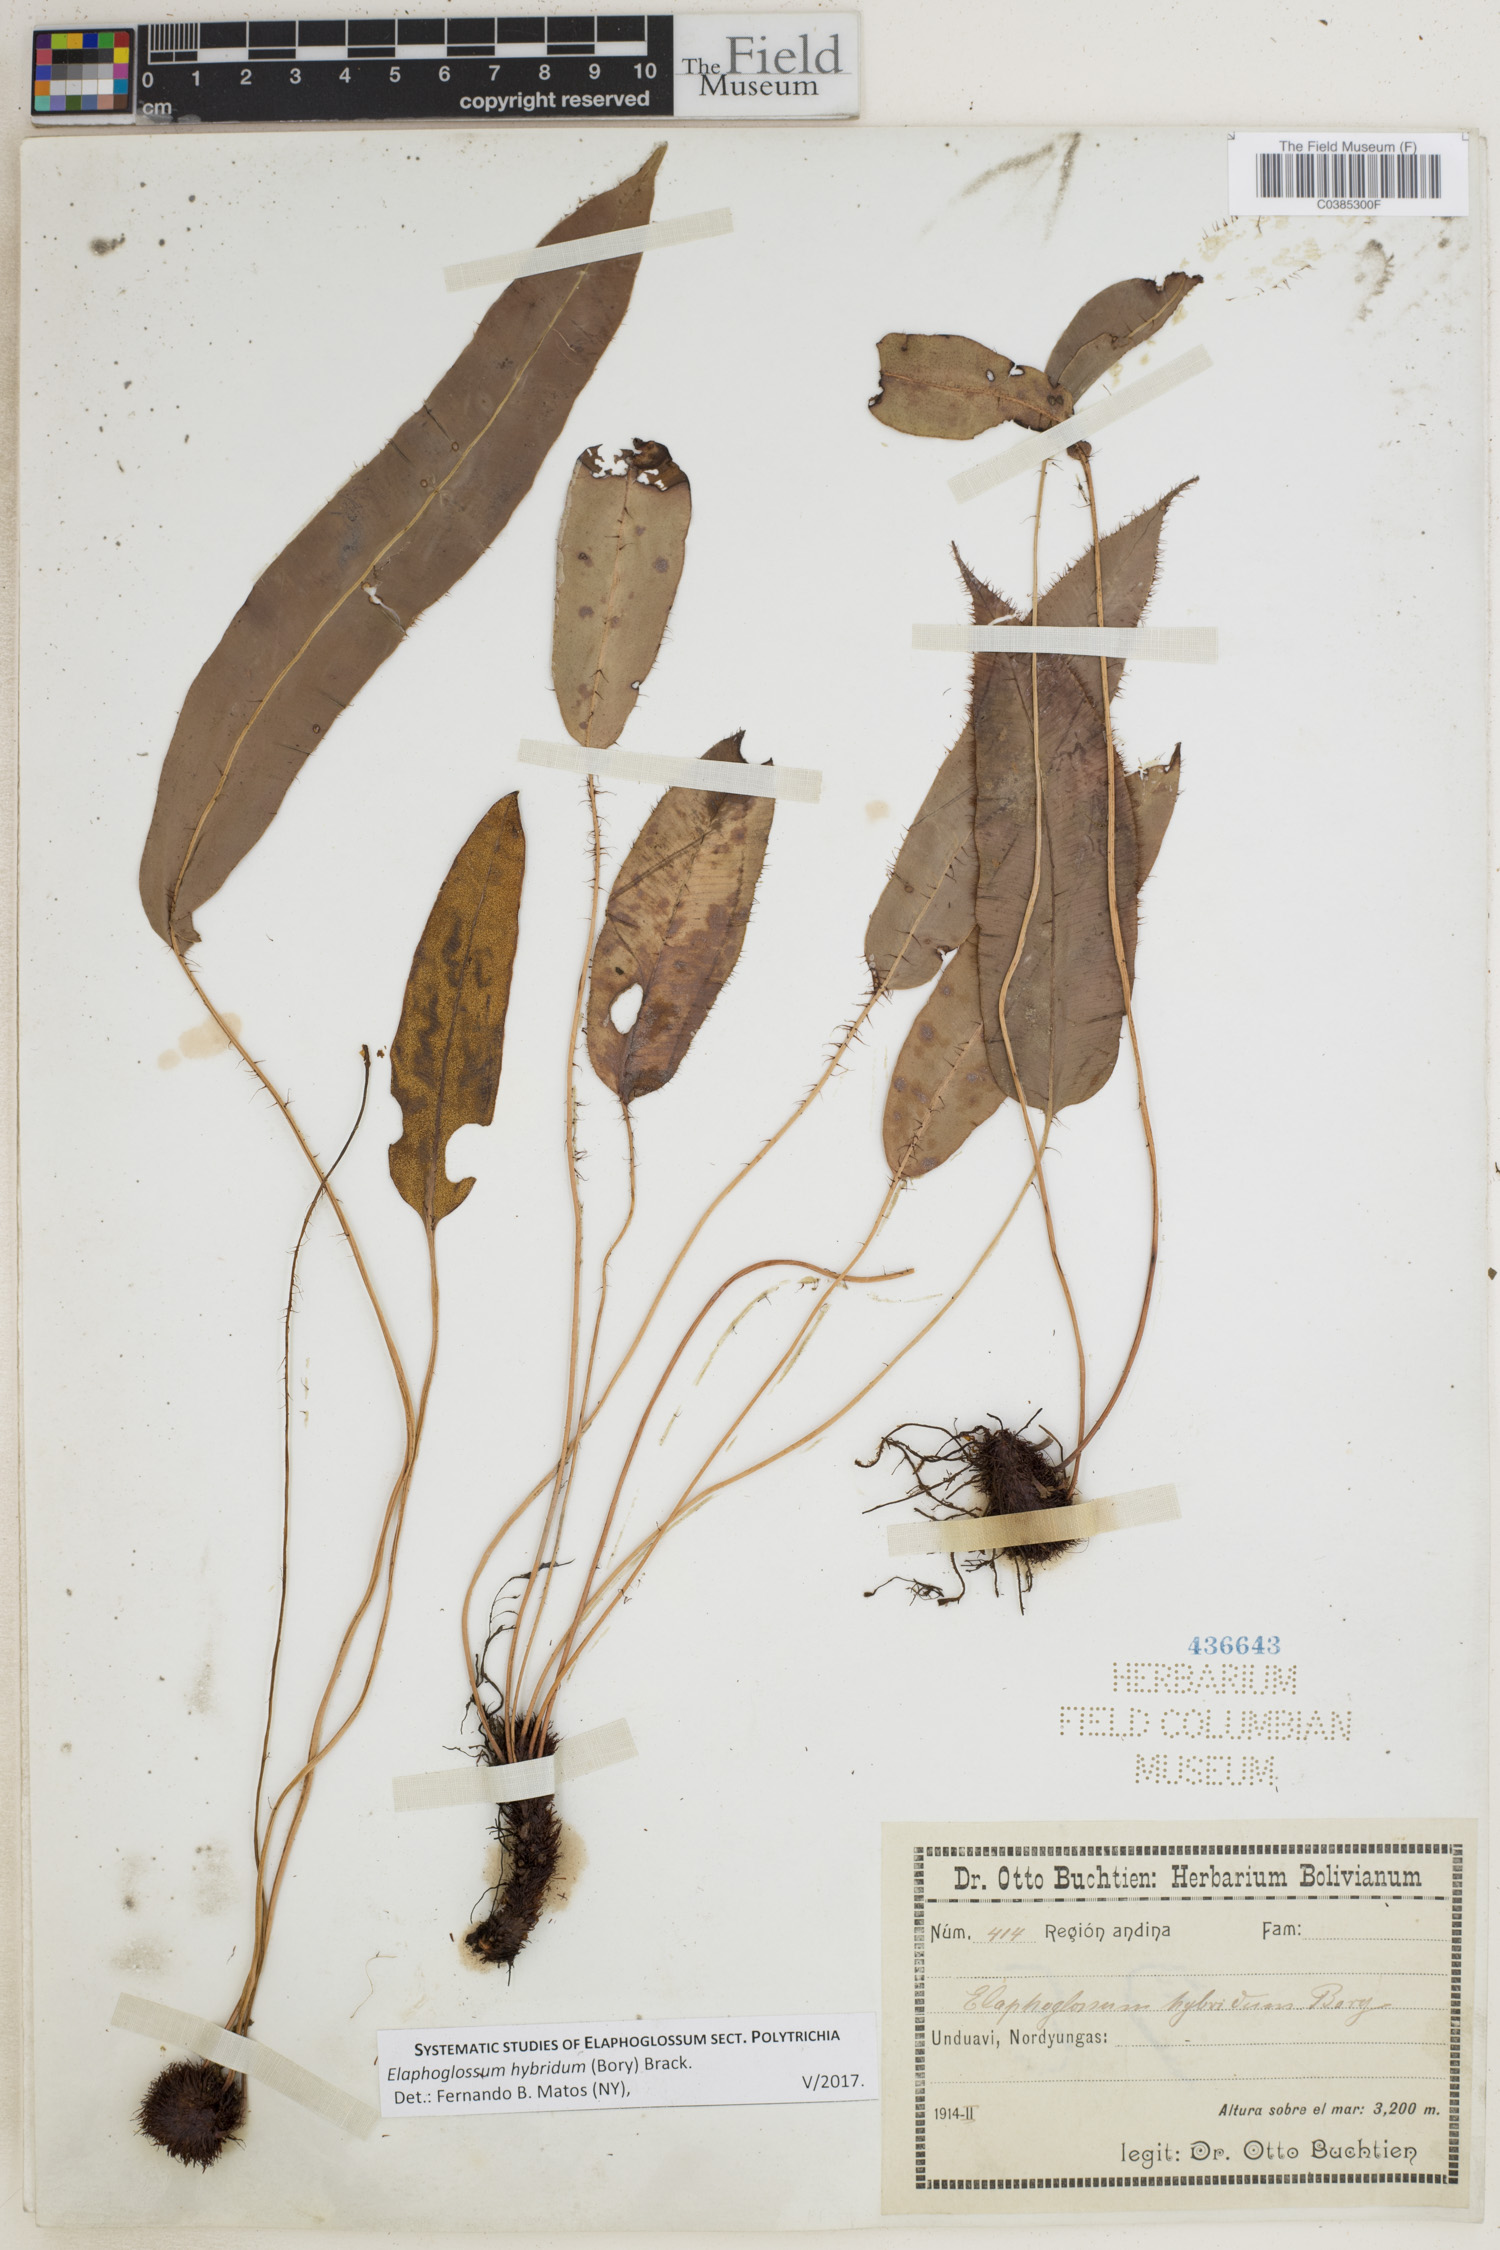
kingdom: Plantae
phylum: Tracheophyta
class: Polypodiopsida
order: Polypodiales
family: Dryopteridaceae
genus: Elaphoglossum
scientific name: Elaphoglossum hybridum
